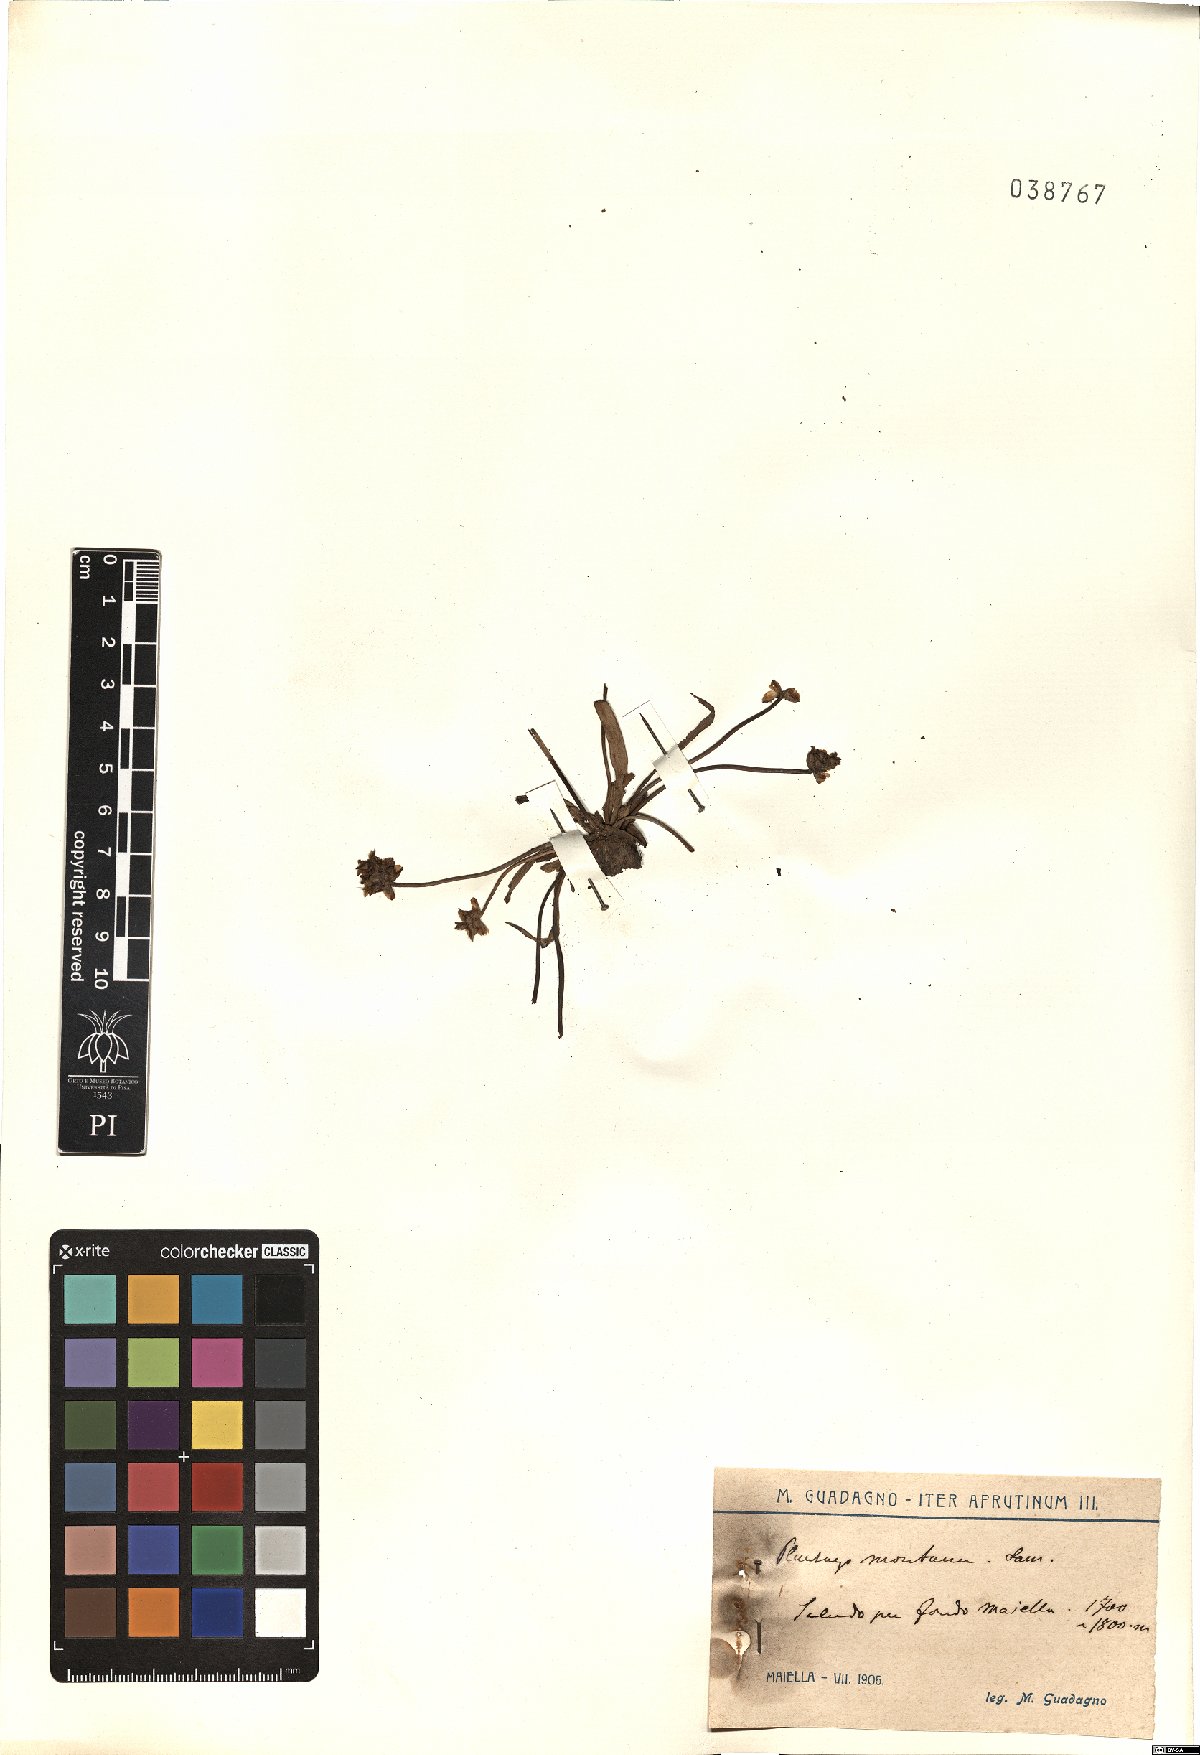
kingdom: Plantae
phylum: Tracheophyta
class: Magnoliopsida
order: Lamiales
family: Plantaginaceae
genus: Plantago
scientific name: Plantago atrata
